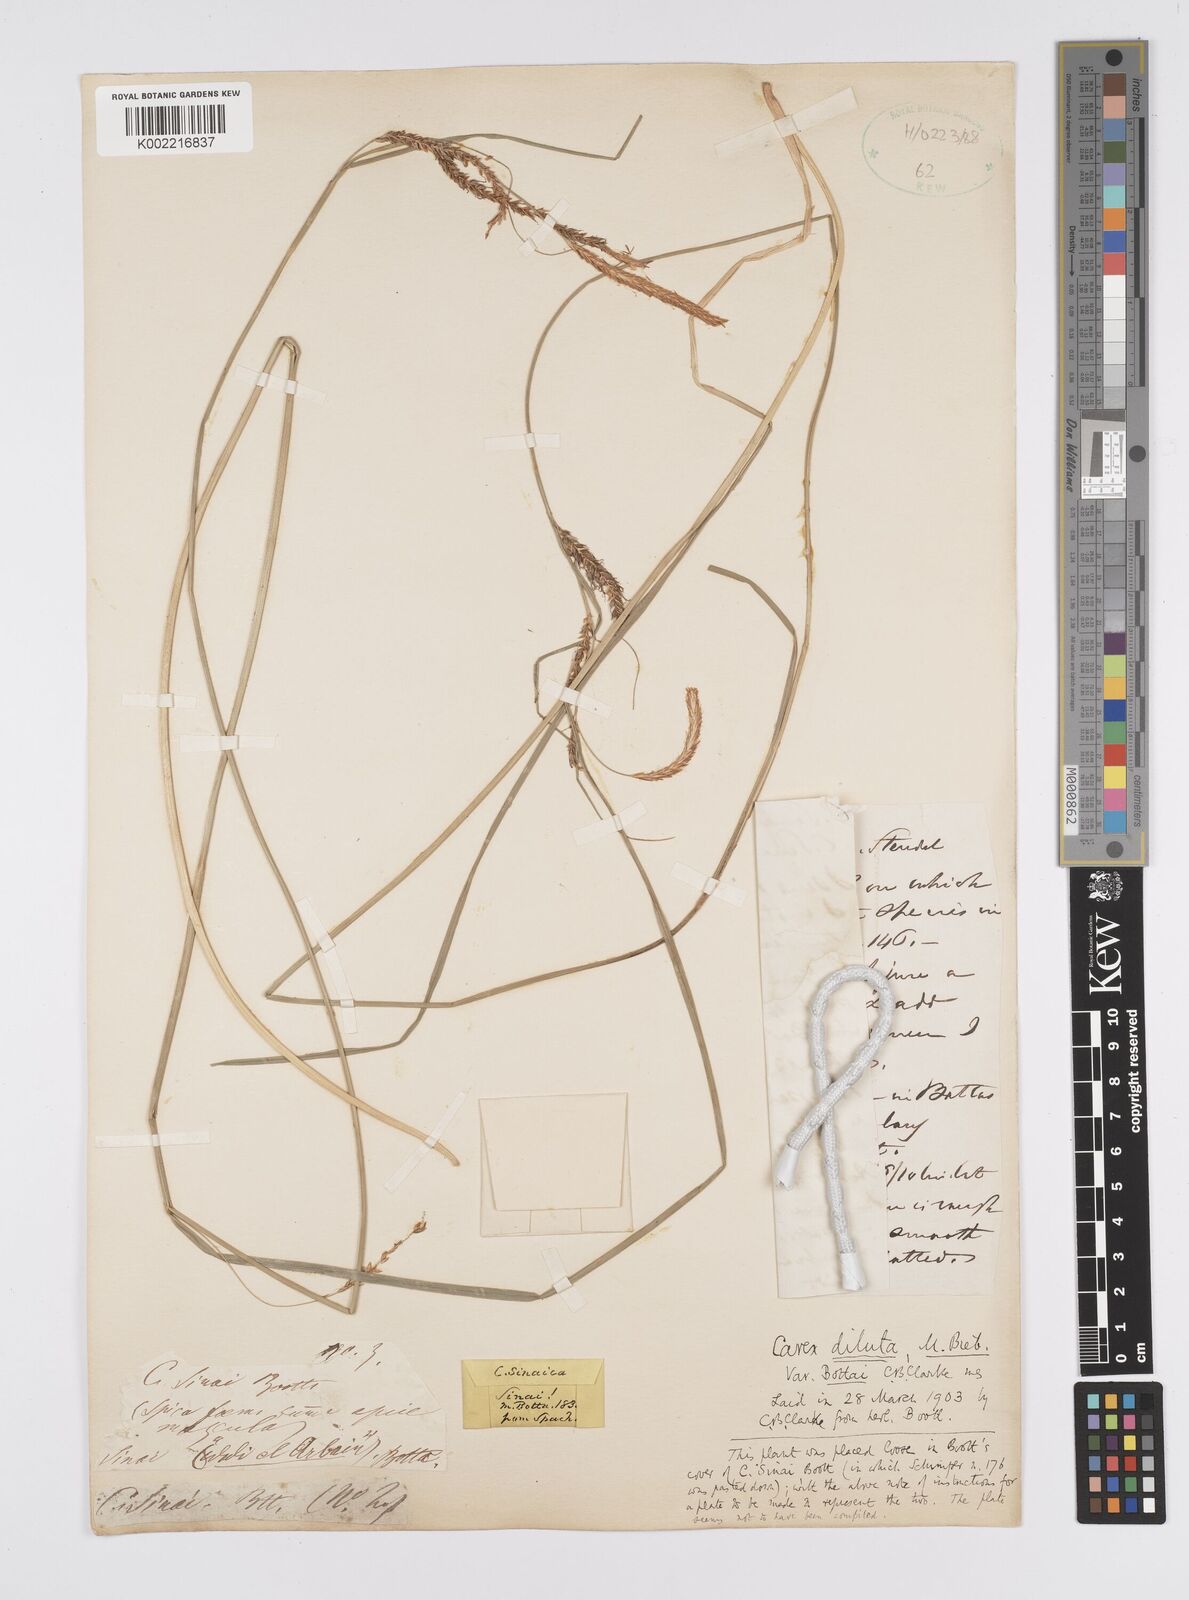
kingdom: Plantae
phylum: Tracheophyta
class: Liliopsida
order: Poales
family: Cyperaceae
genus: Carex
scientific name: Carex diluta
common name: Sedge
